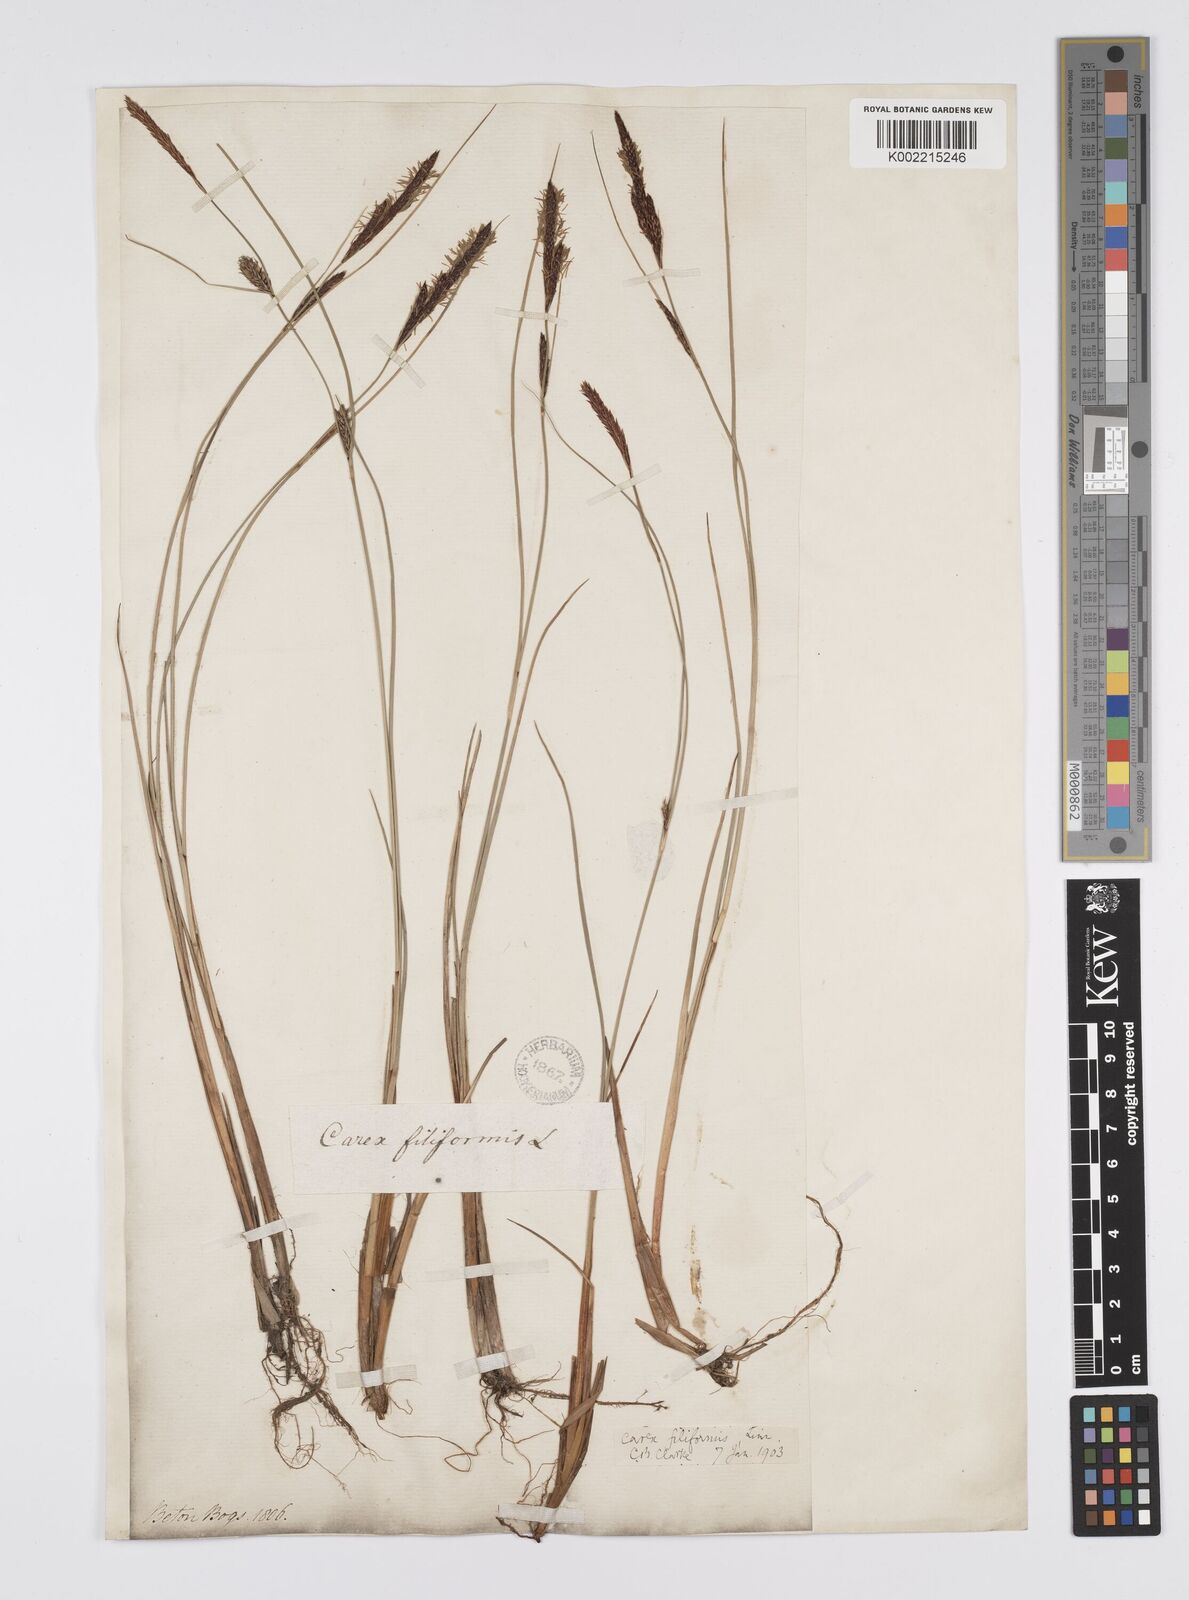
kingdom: Plantae
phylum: Tracheophyta
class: Liliopsida
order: Poales
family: Cyperaceae
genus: Carex
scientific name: Carex lasiocarpa
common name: Slender sedge
